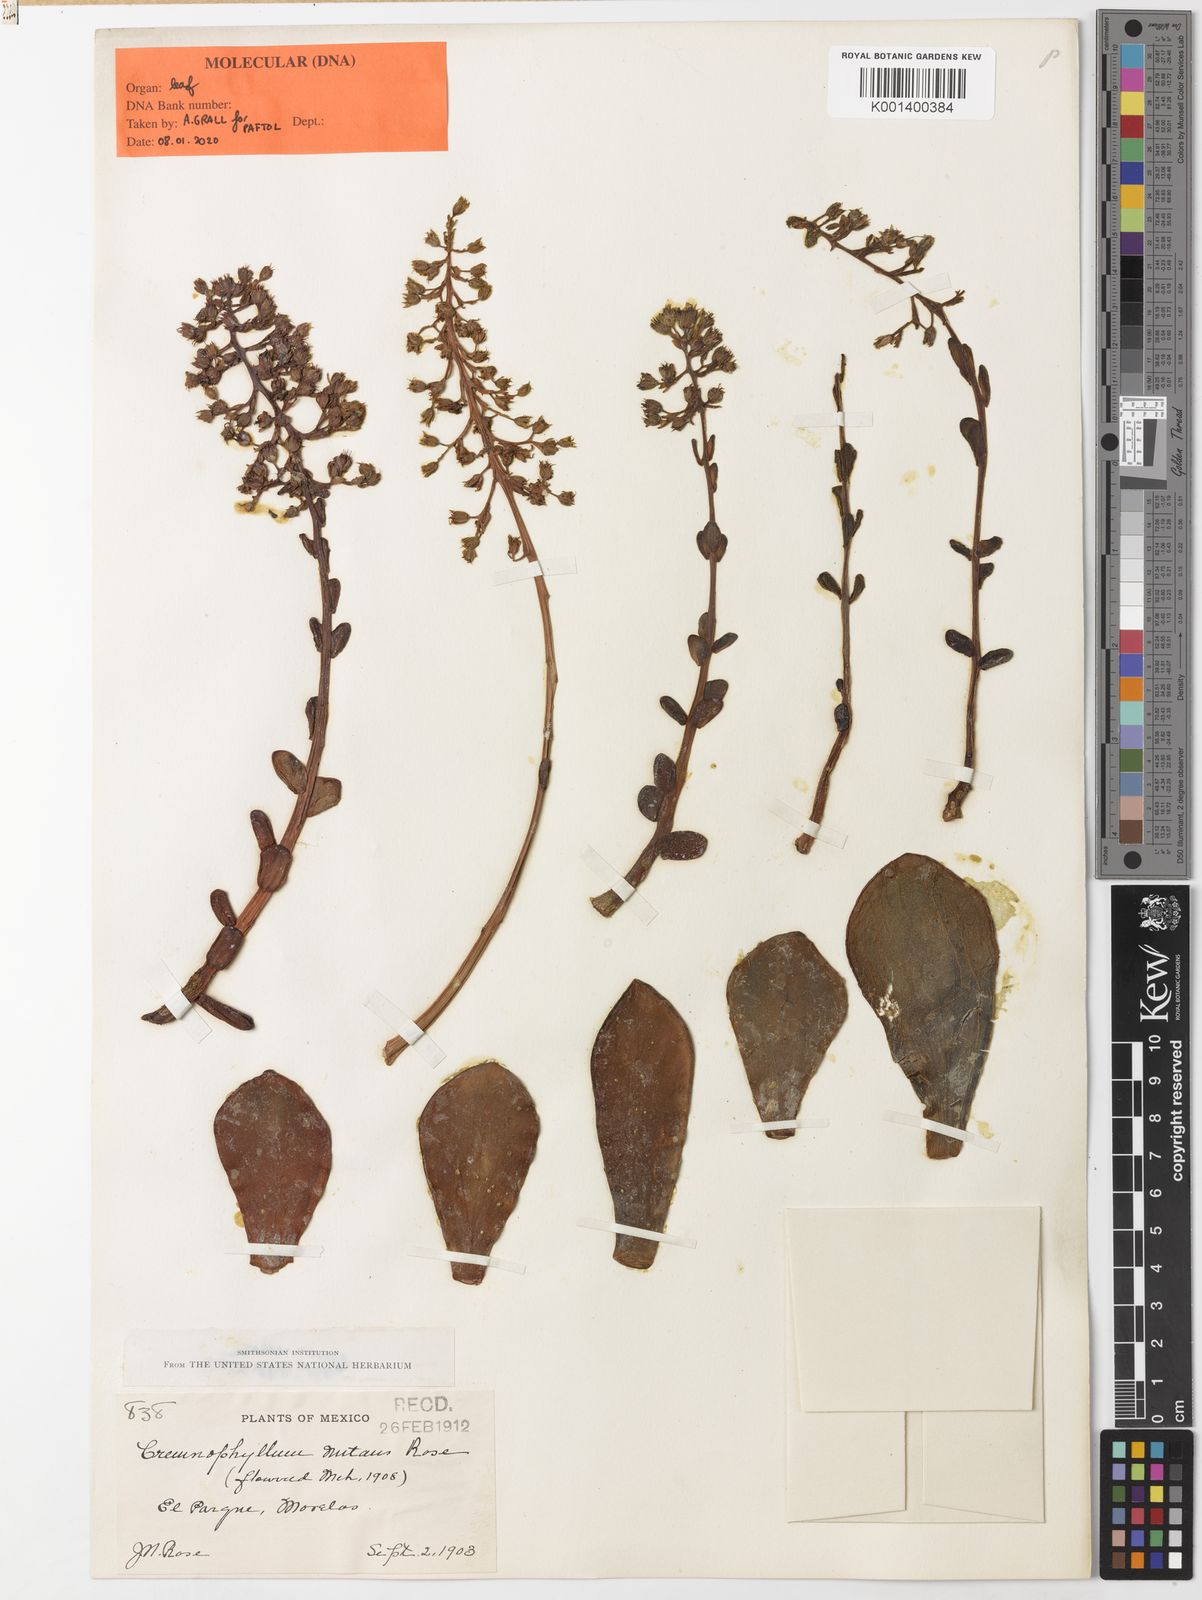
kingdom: Plantae
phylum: Tracheophyta
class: Magnoliopsida
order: Saxifragales
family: Crassulaceae
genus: Cremnophila
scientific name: Cremnophila nutans
